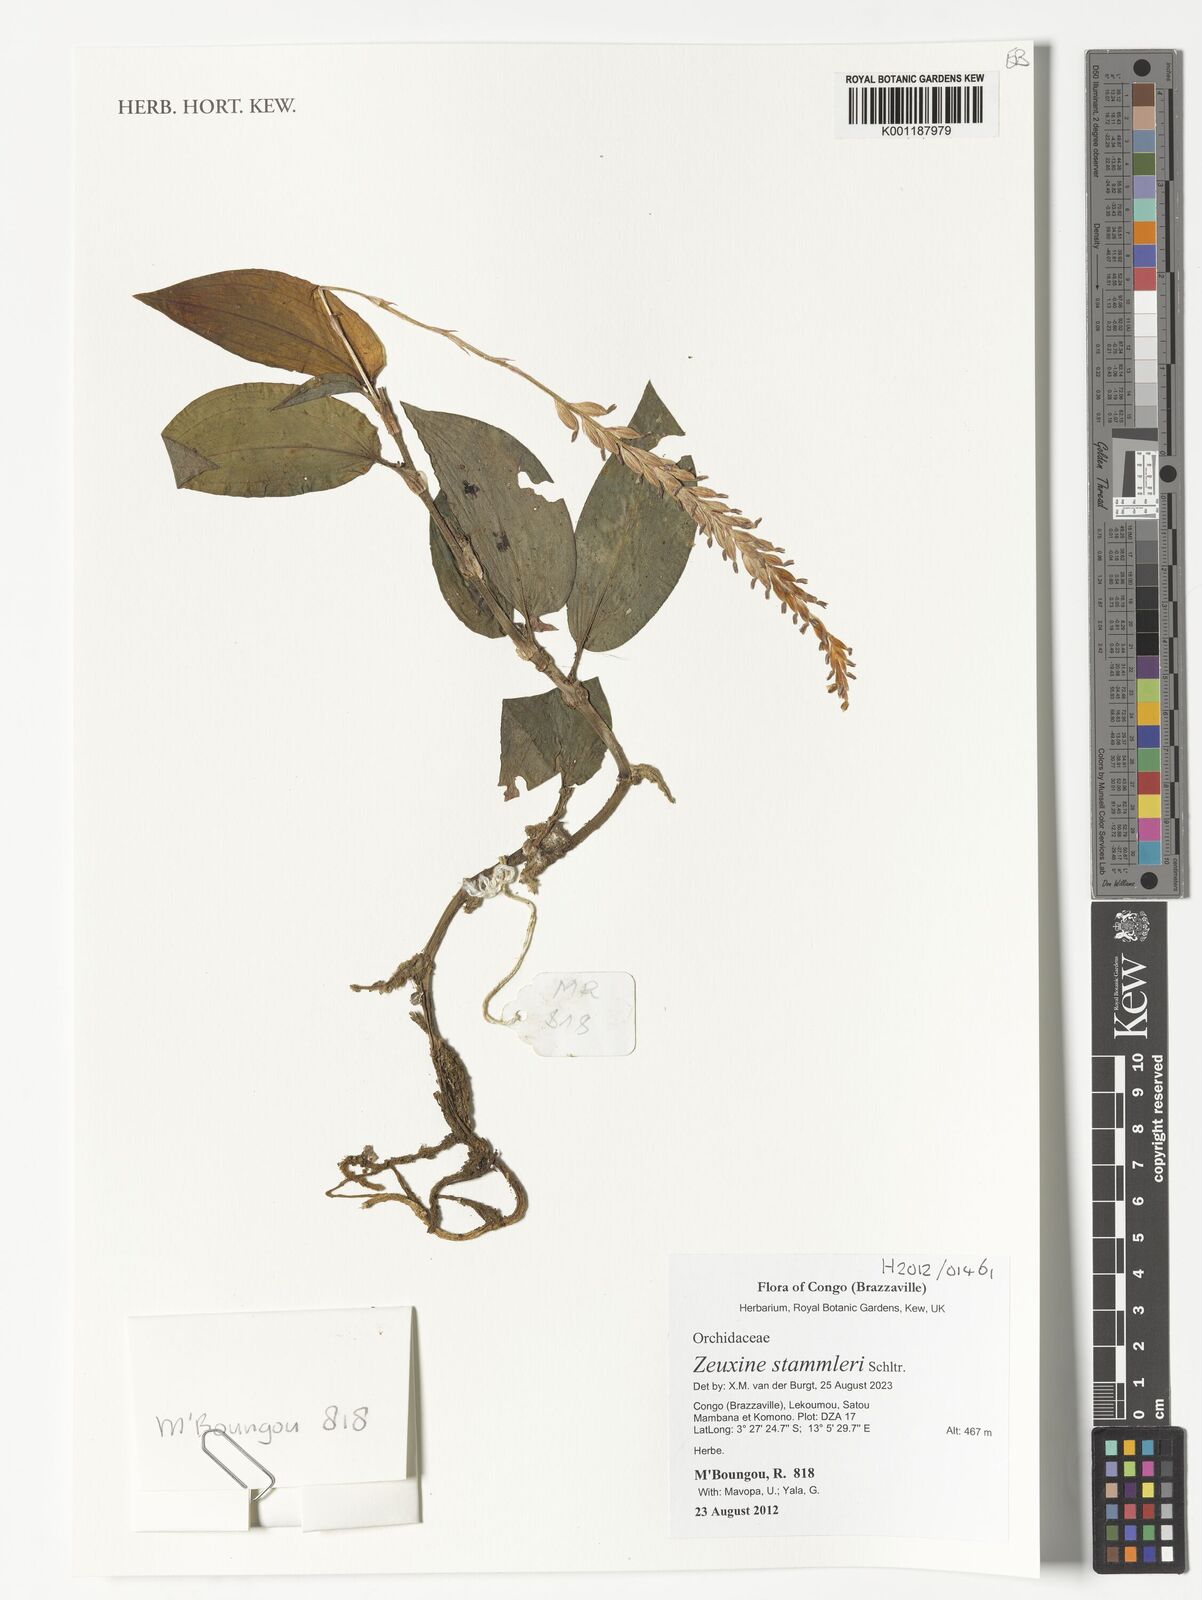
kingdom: Plantae
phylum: Tracheophyta
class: Liliopsida
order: Asparagales
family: Orchidaceae
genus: Zeuxine
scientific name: Zeuxine stammleri
